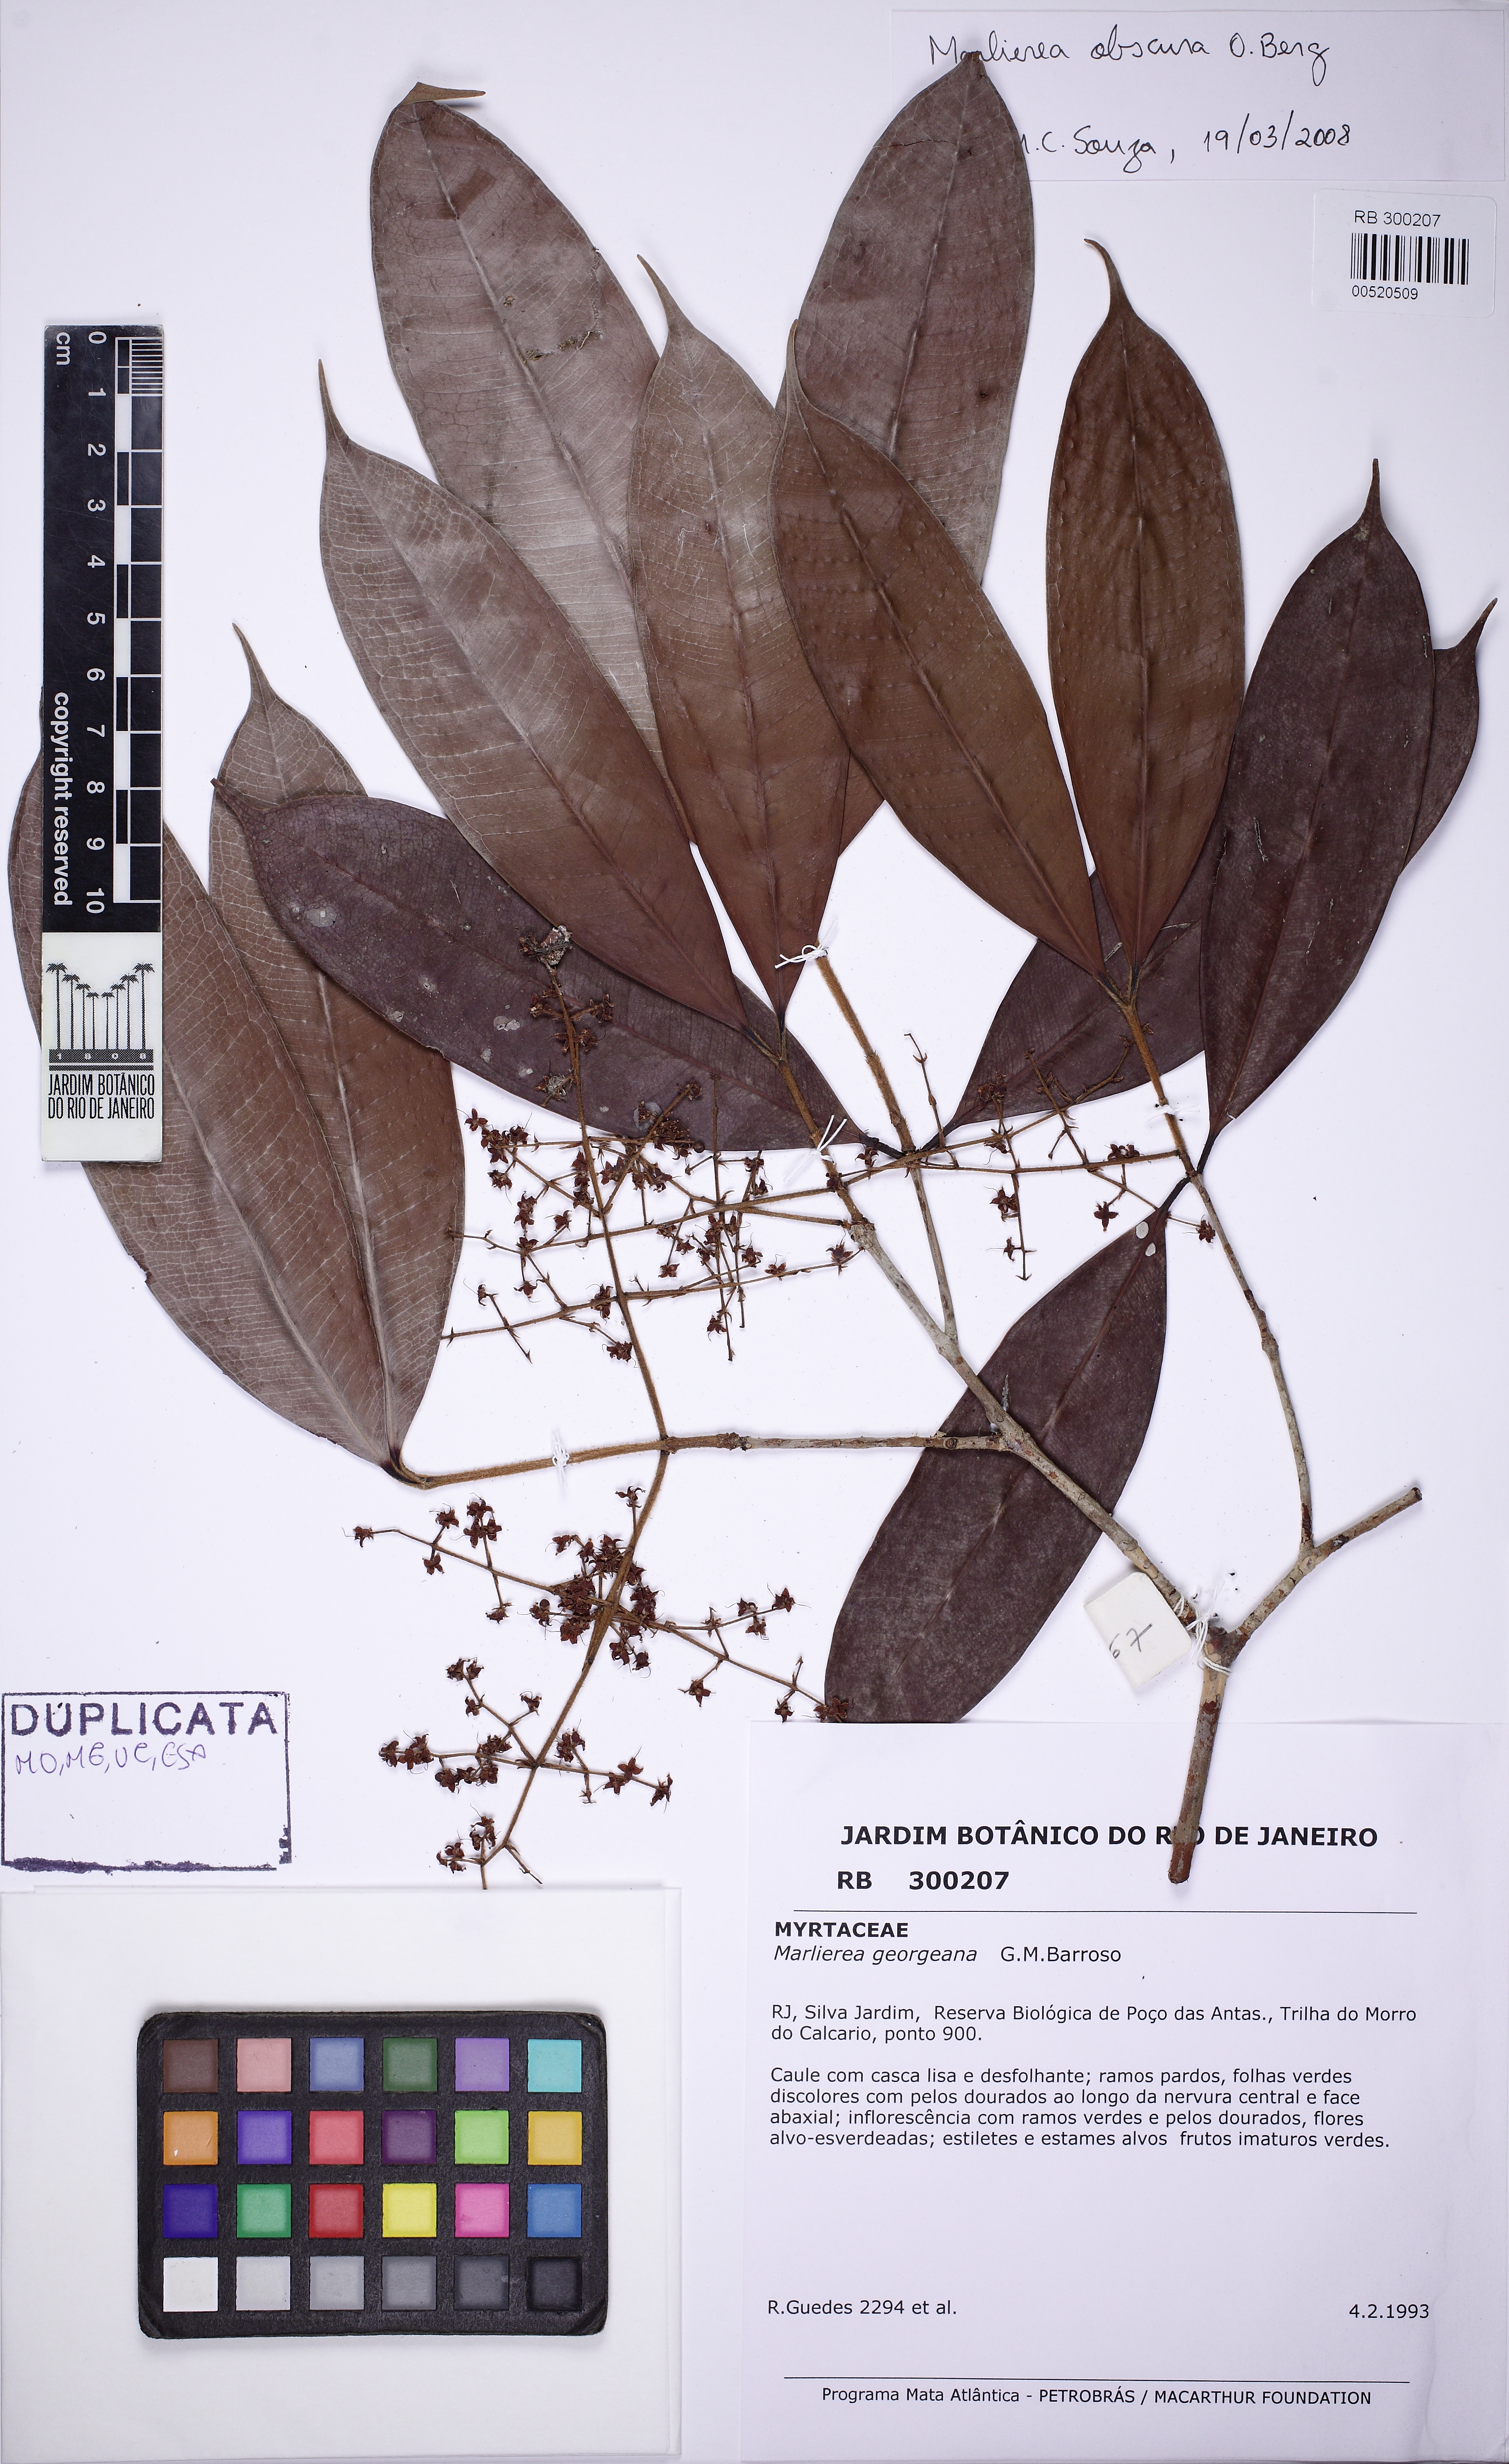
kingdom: Plantae
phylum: Tracheophyta
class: Magnoliopsida
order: Myrtales
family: Myrtaceae
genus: Myrcia
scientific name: Myrcia neoobscura
